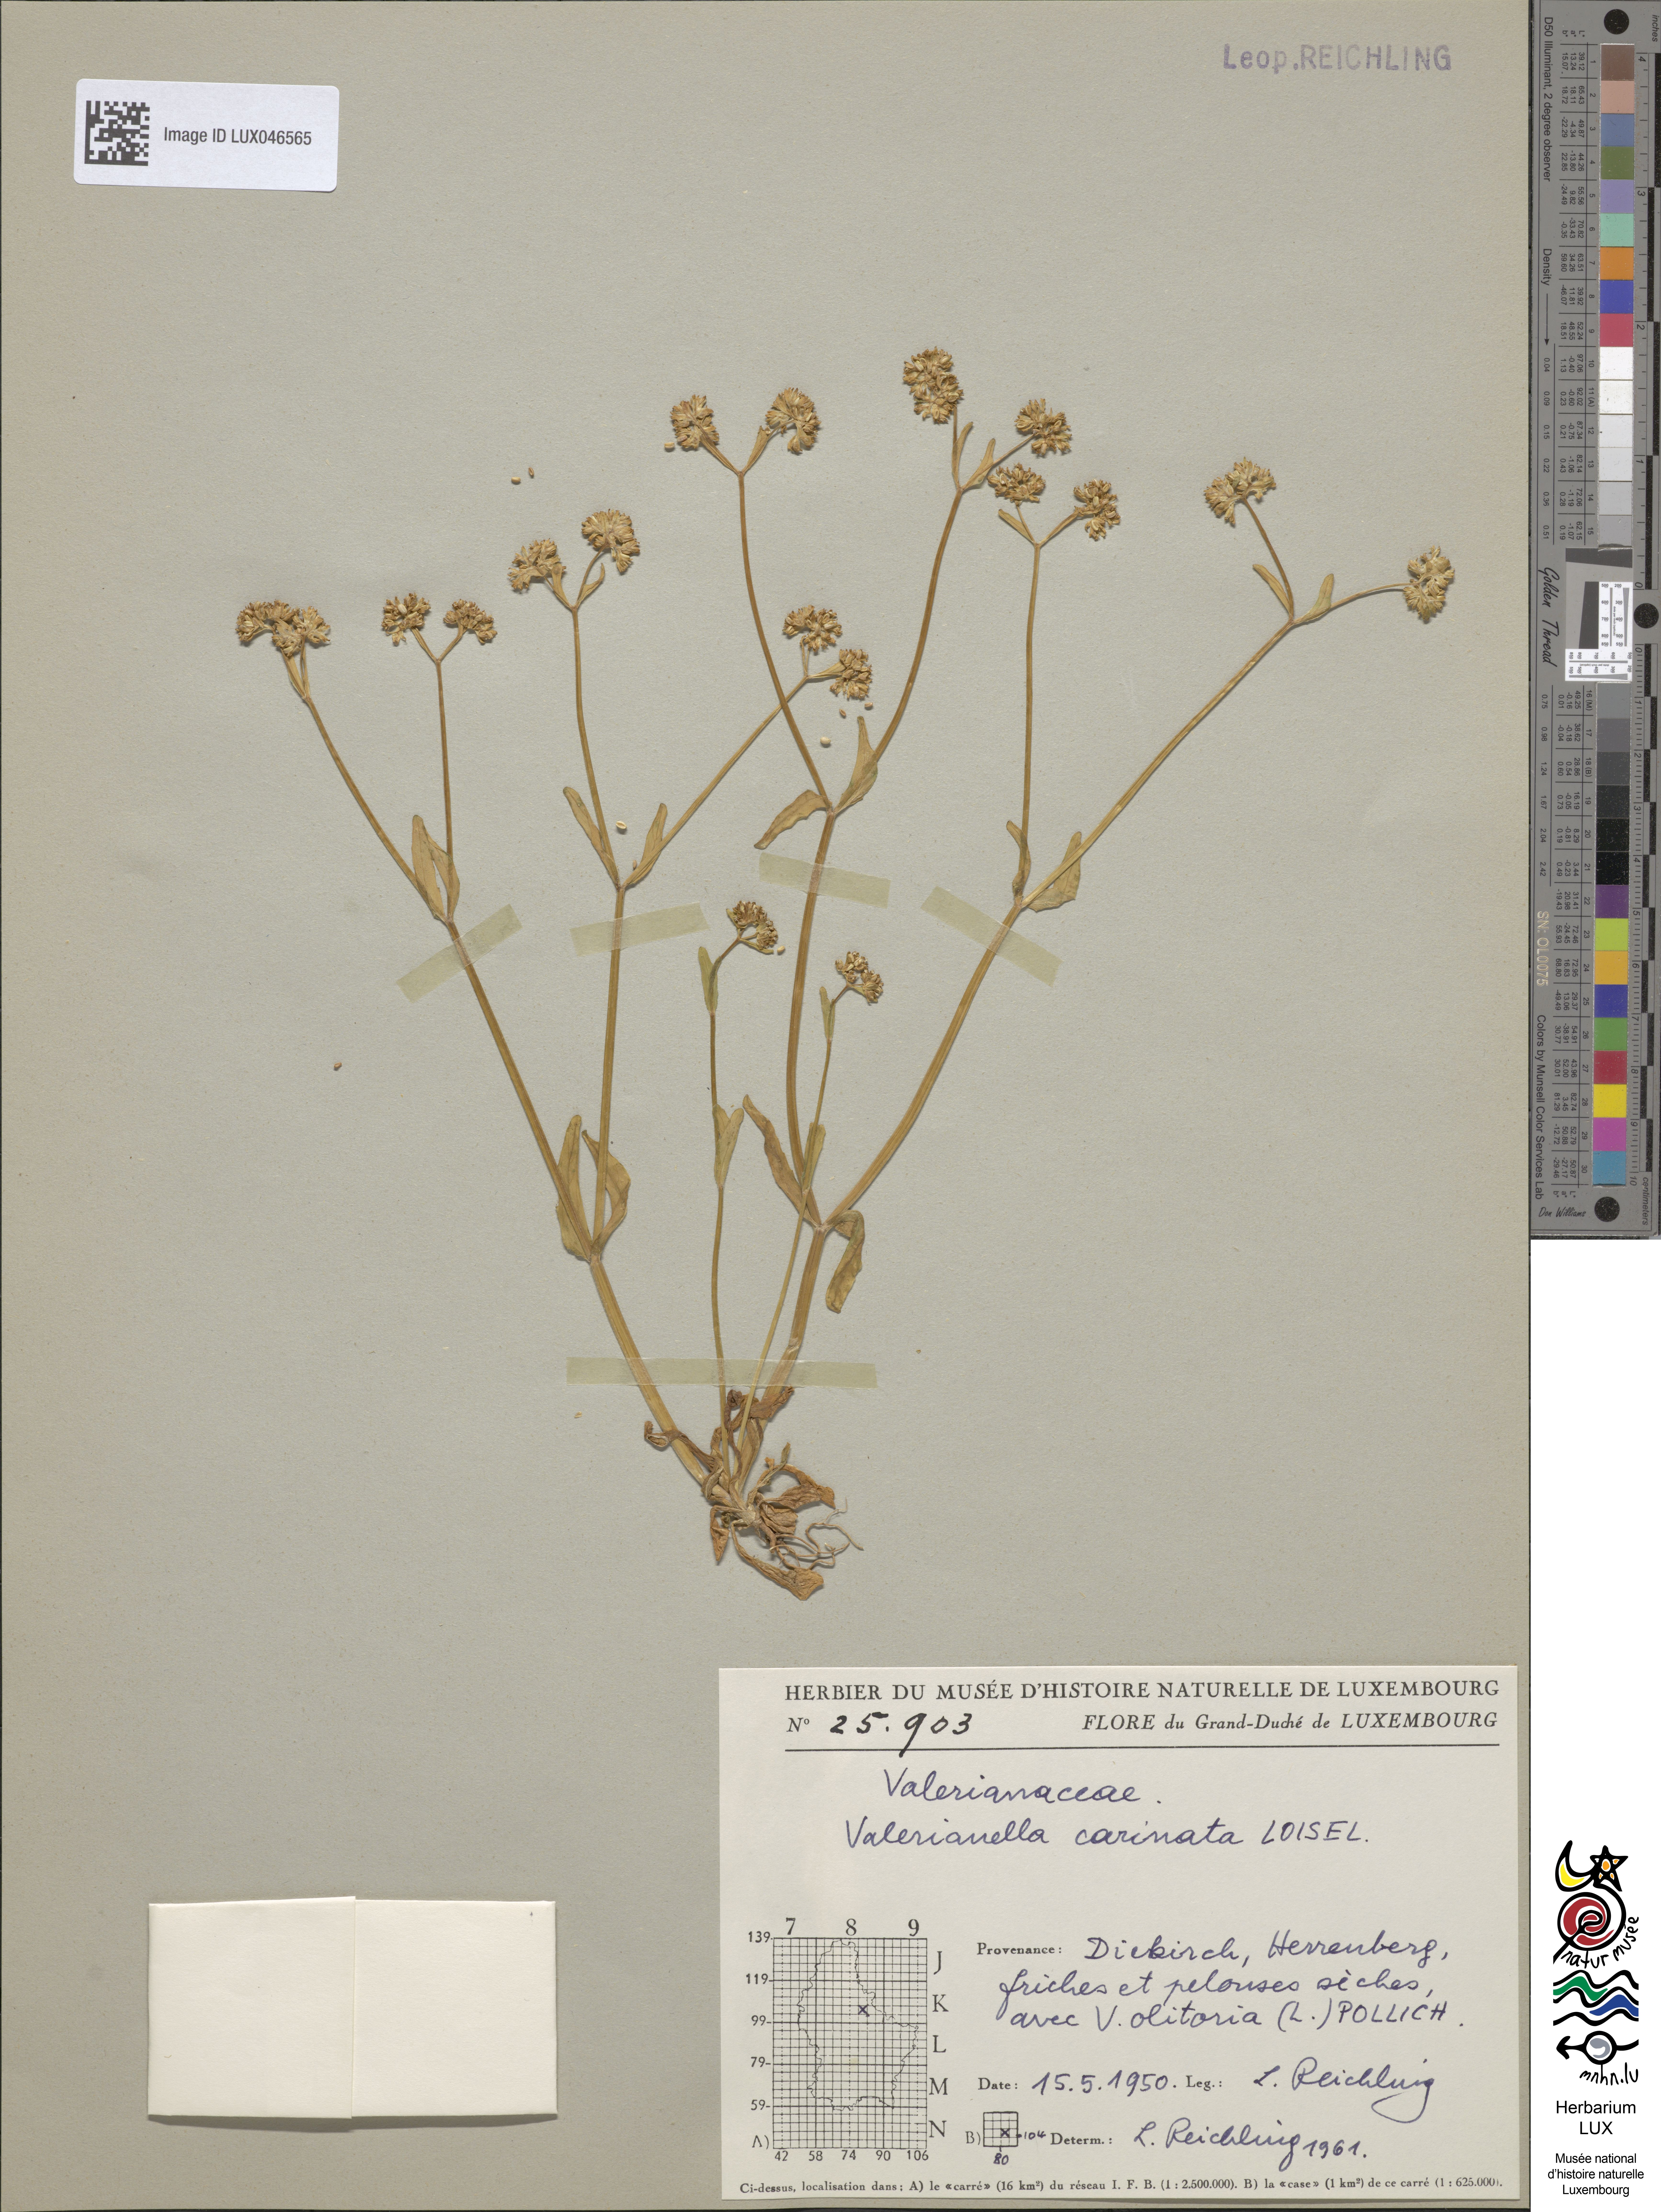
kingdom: Plantae
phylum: Tracheophyta
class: Magnoliopsida
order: Dipsacales
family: Caprifoliaceae
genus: Valerianella
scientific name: Valerianella carinata
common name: Keeled-fruited cornsalad
